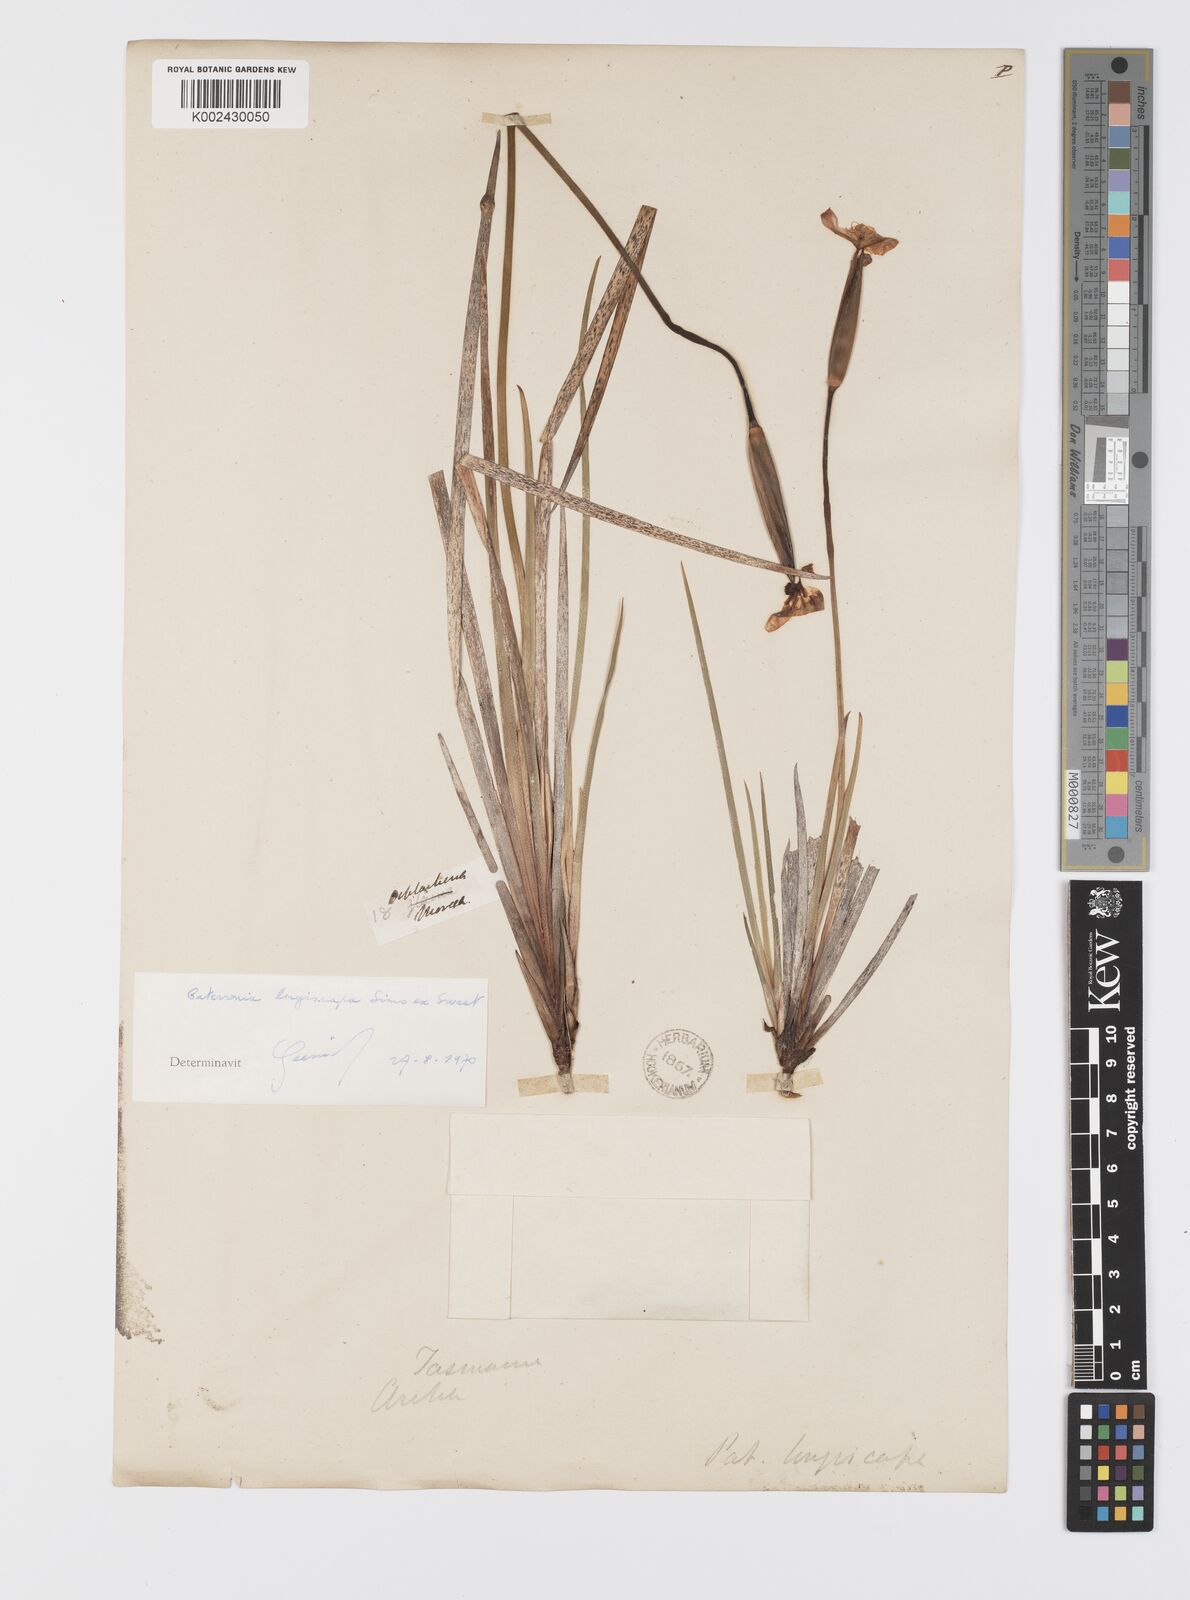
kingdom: Plantae
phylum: Tracheophyta
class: Liliopsida
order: Asparagales
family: Iridaceae
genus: Patersonia
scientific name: Patersonia occidentalis
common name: Long purple-flag
